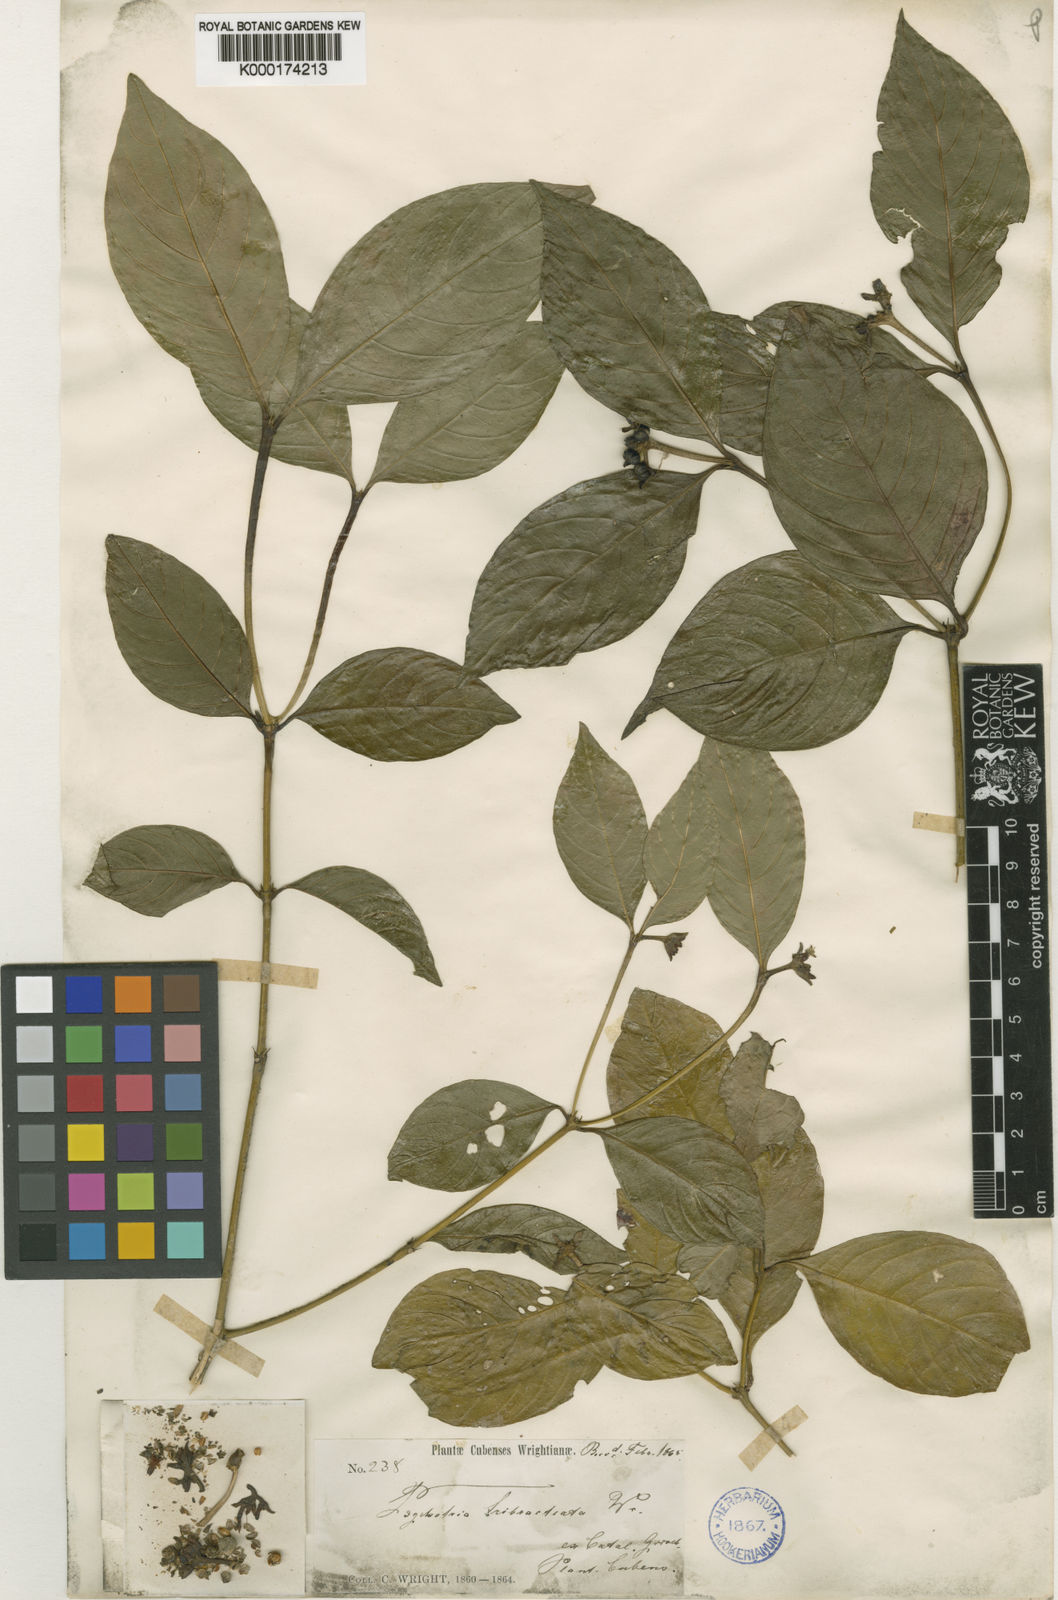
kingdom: Plantae
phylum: Tracheophyta
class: Magnoliopsida
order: Gentianales
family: Rubiaceae
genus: Palicourea
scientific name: Palicourea richardiana
